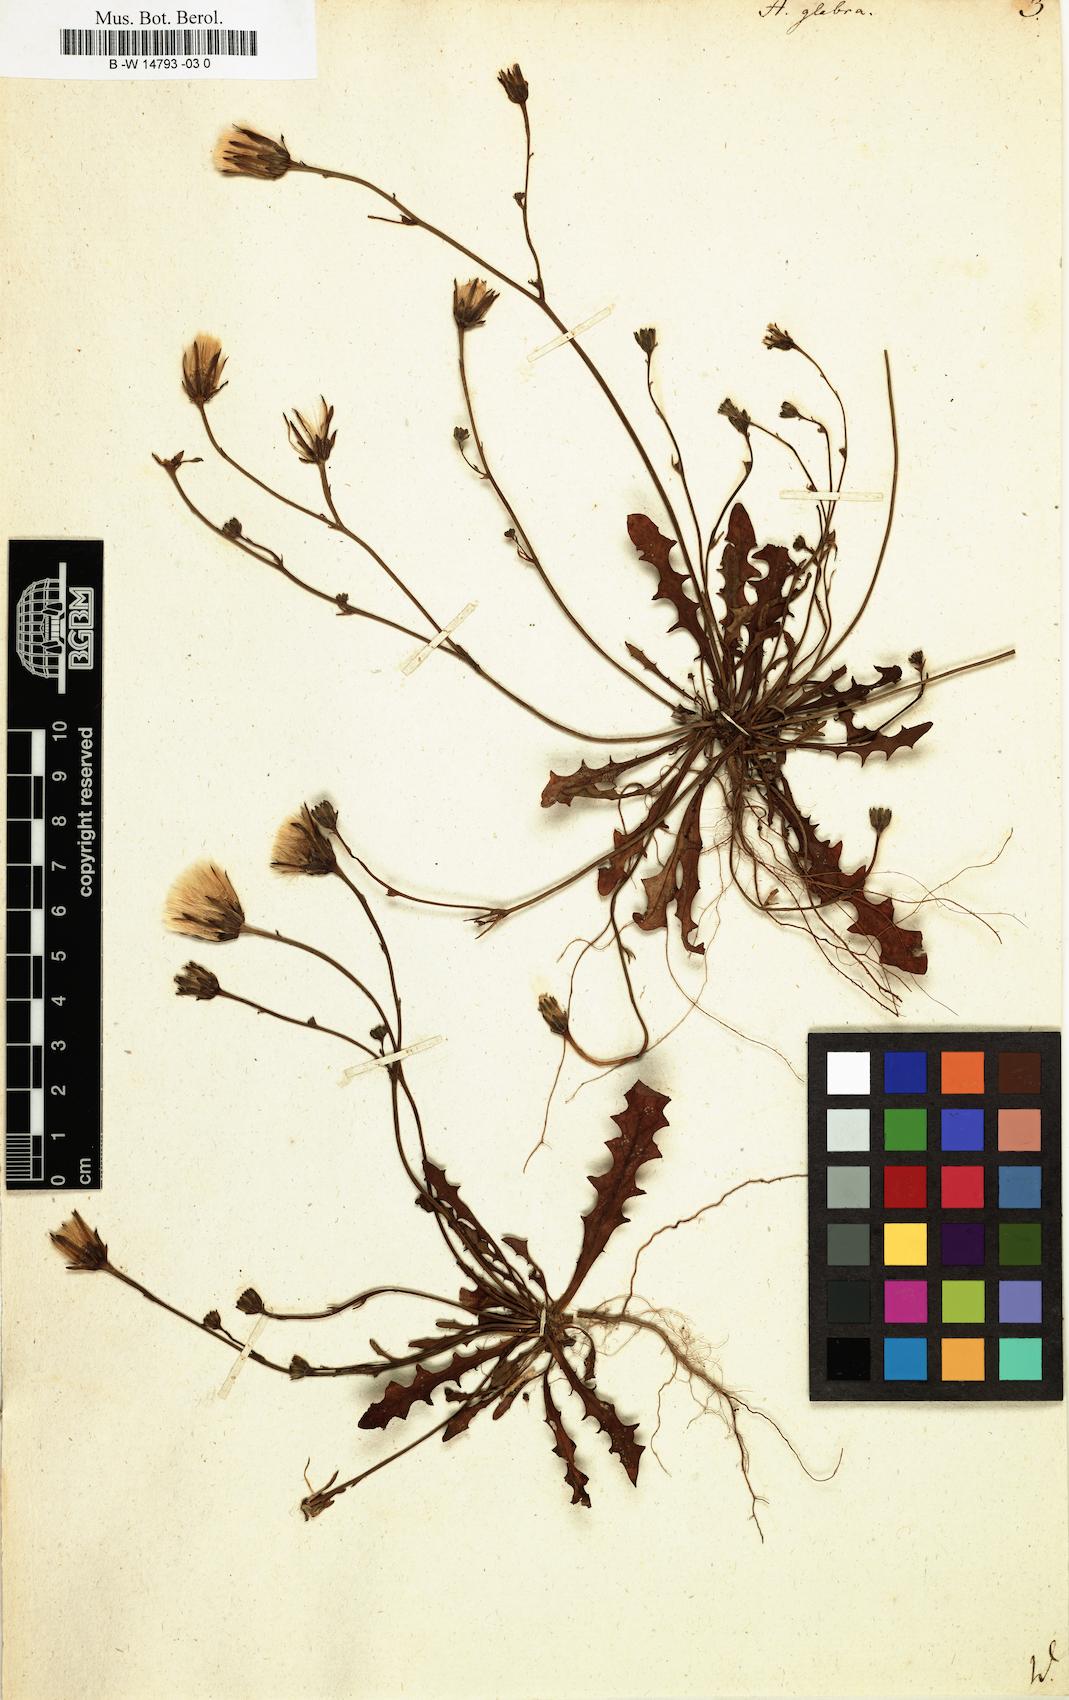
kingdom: Plantae
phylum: Tracheophyta
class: Magnoliopsida
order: Asterales
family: Asteraceae
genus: Hypochaeris
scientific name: Hypochaeris glabra
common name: Smooth catsear
